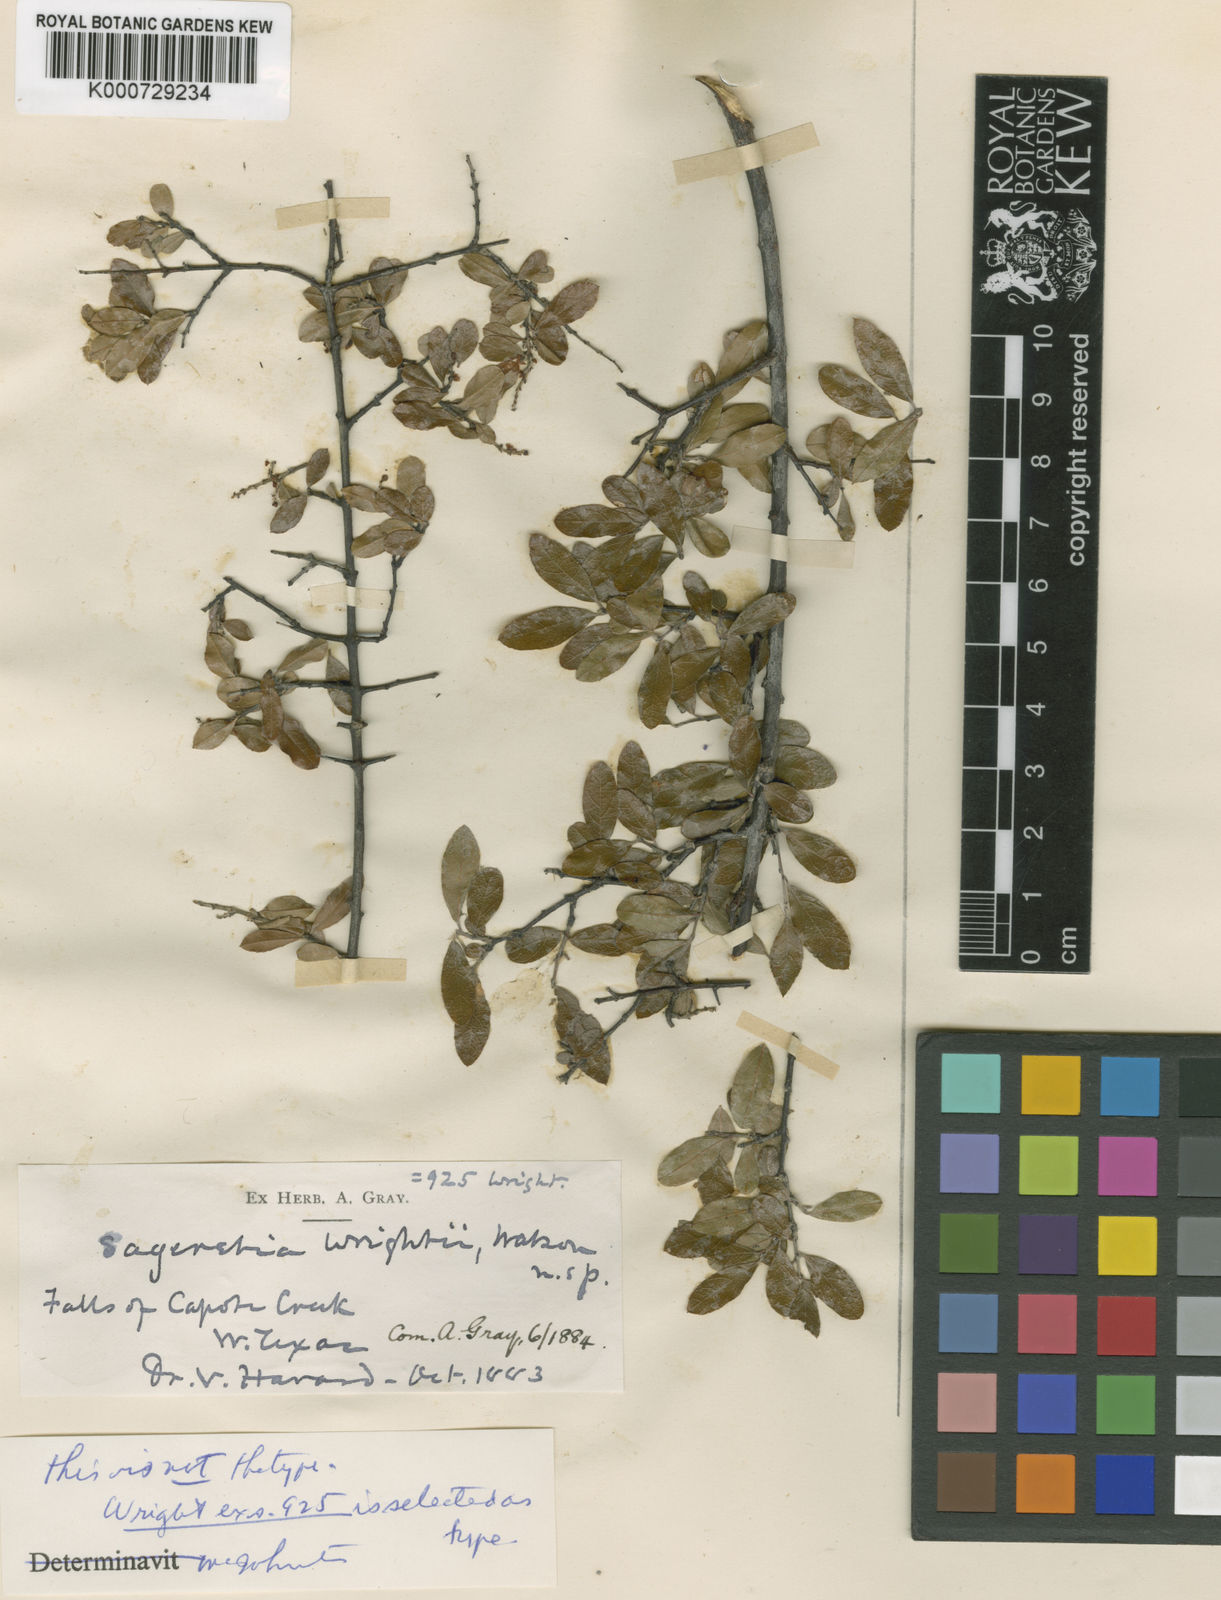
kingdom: Plantae
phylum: Tracheophyta
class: Magnoliopsida
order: Rosales
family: Rhamnaceae
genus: Sageretia
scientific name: Sageretia wrightii
